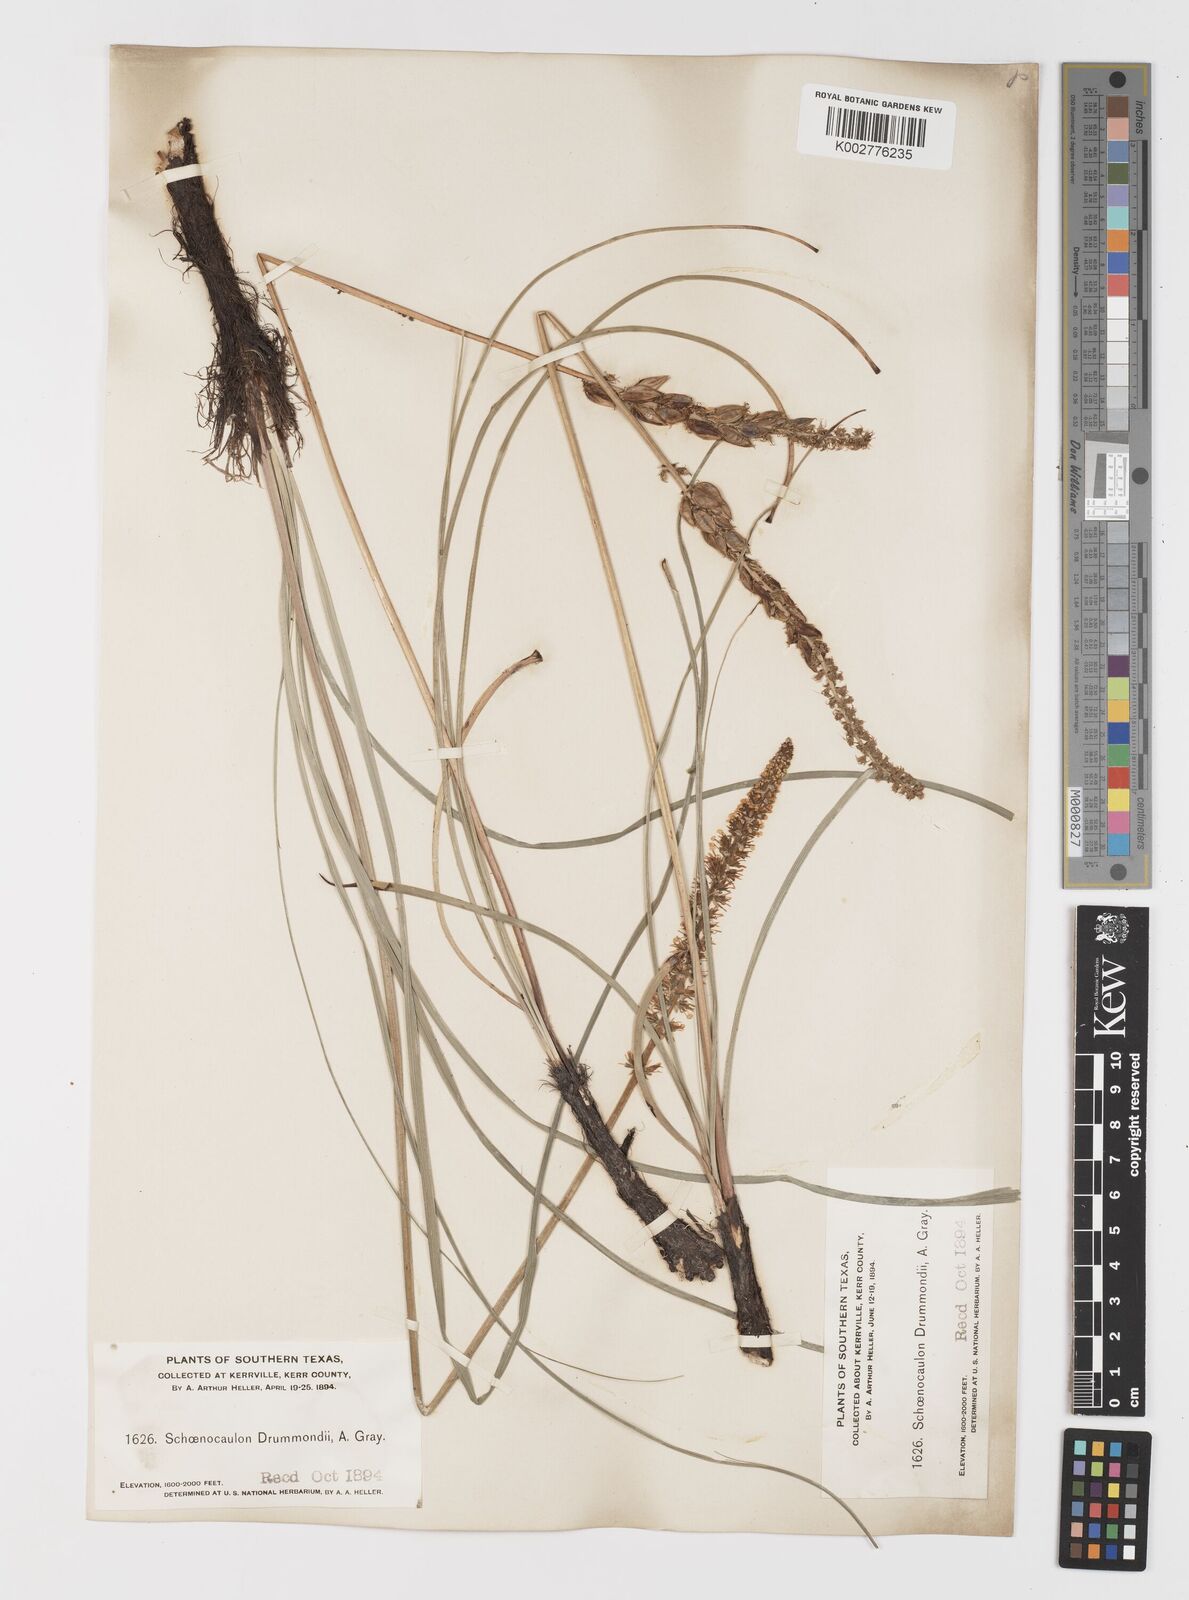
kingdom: Plantae
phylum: Tracheophyta
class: Liliopsida
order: Liliales
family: Melanthiaceae
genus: Schoenocaulon
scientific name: Schoenocaulon texanum
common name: Texas feather-shank
